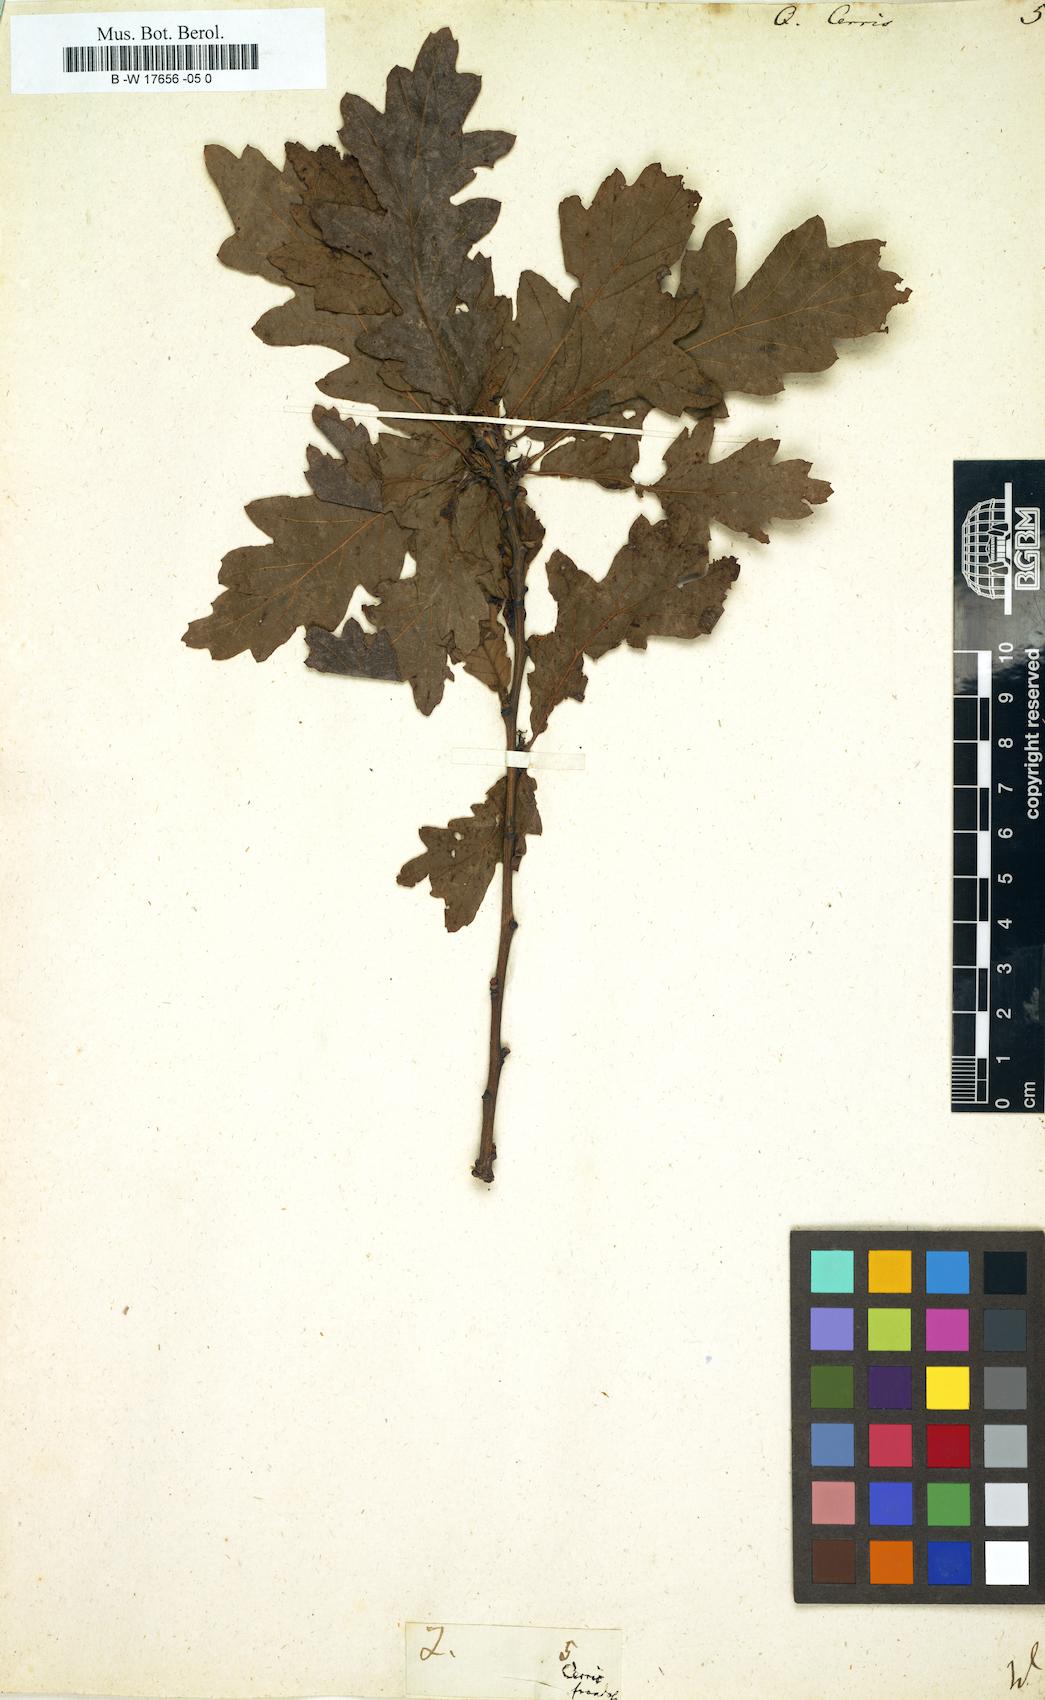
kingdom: Plantae
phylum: Tracheophyta
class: Magnoliopsida
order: Fagales
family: Fagaceae
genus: Quercus
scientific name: Quercus cerris
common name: Turkey oak
